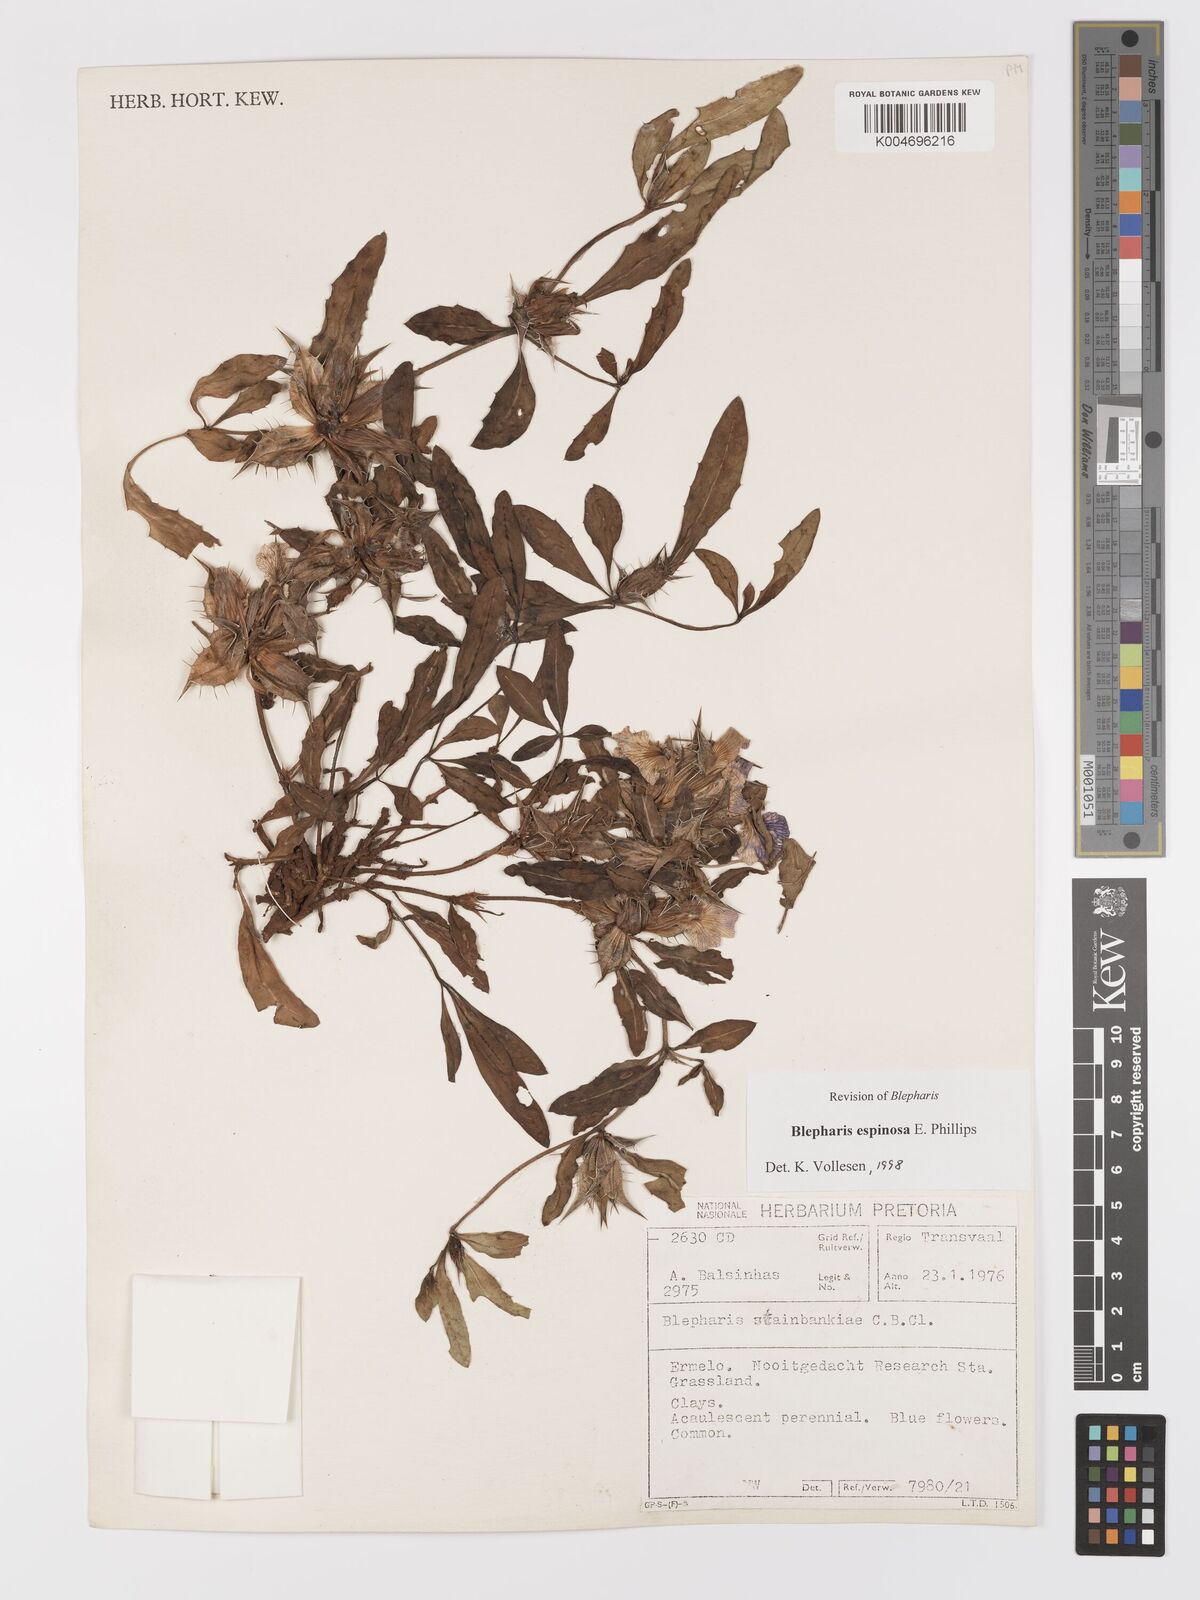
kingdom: Plantae
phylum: Tracheophyta
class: Magnoliopsida
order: Lamiales
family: Acanthaceae
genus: Blepharis
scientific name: Blepharis espinosa
